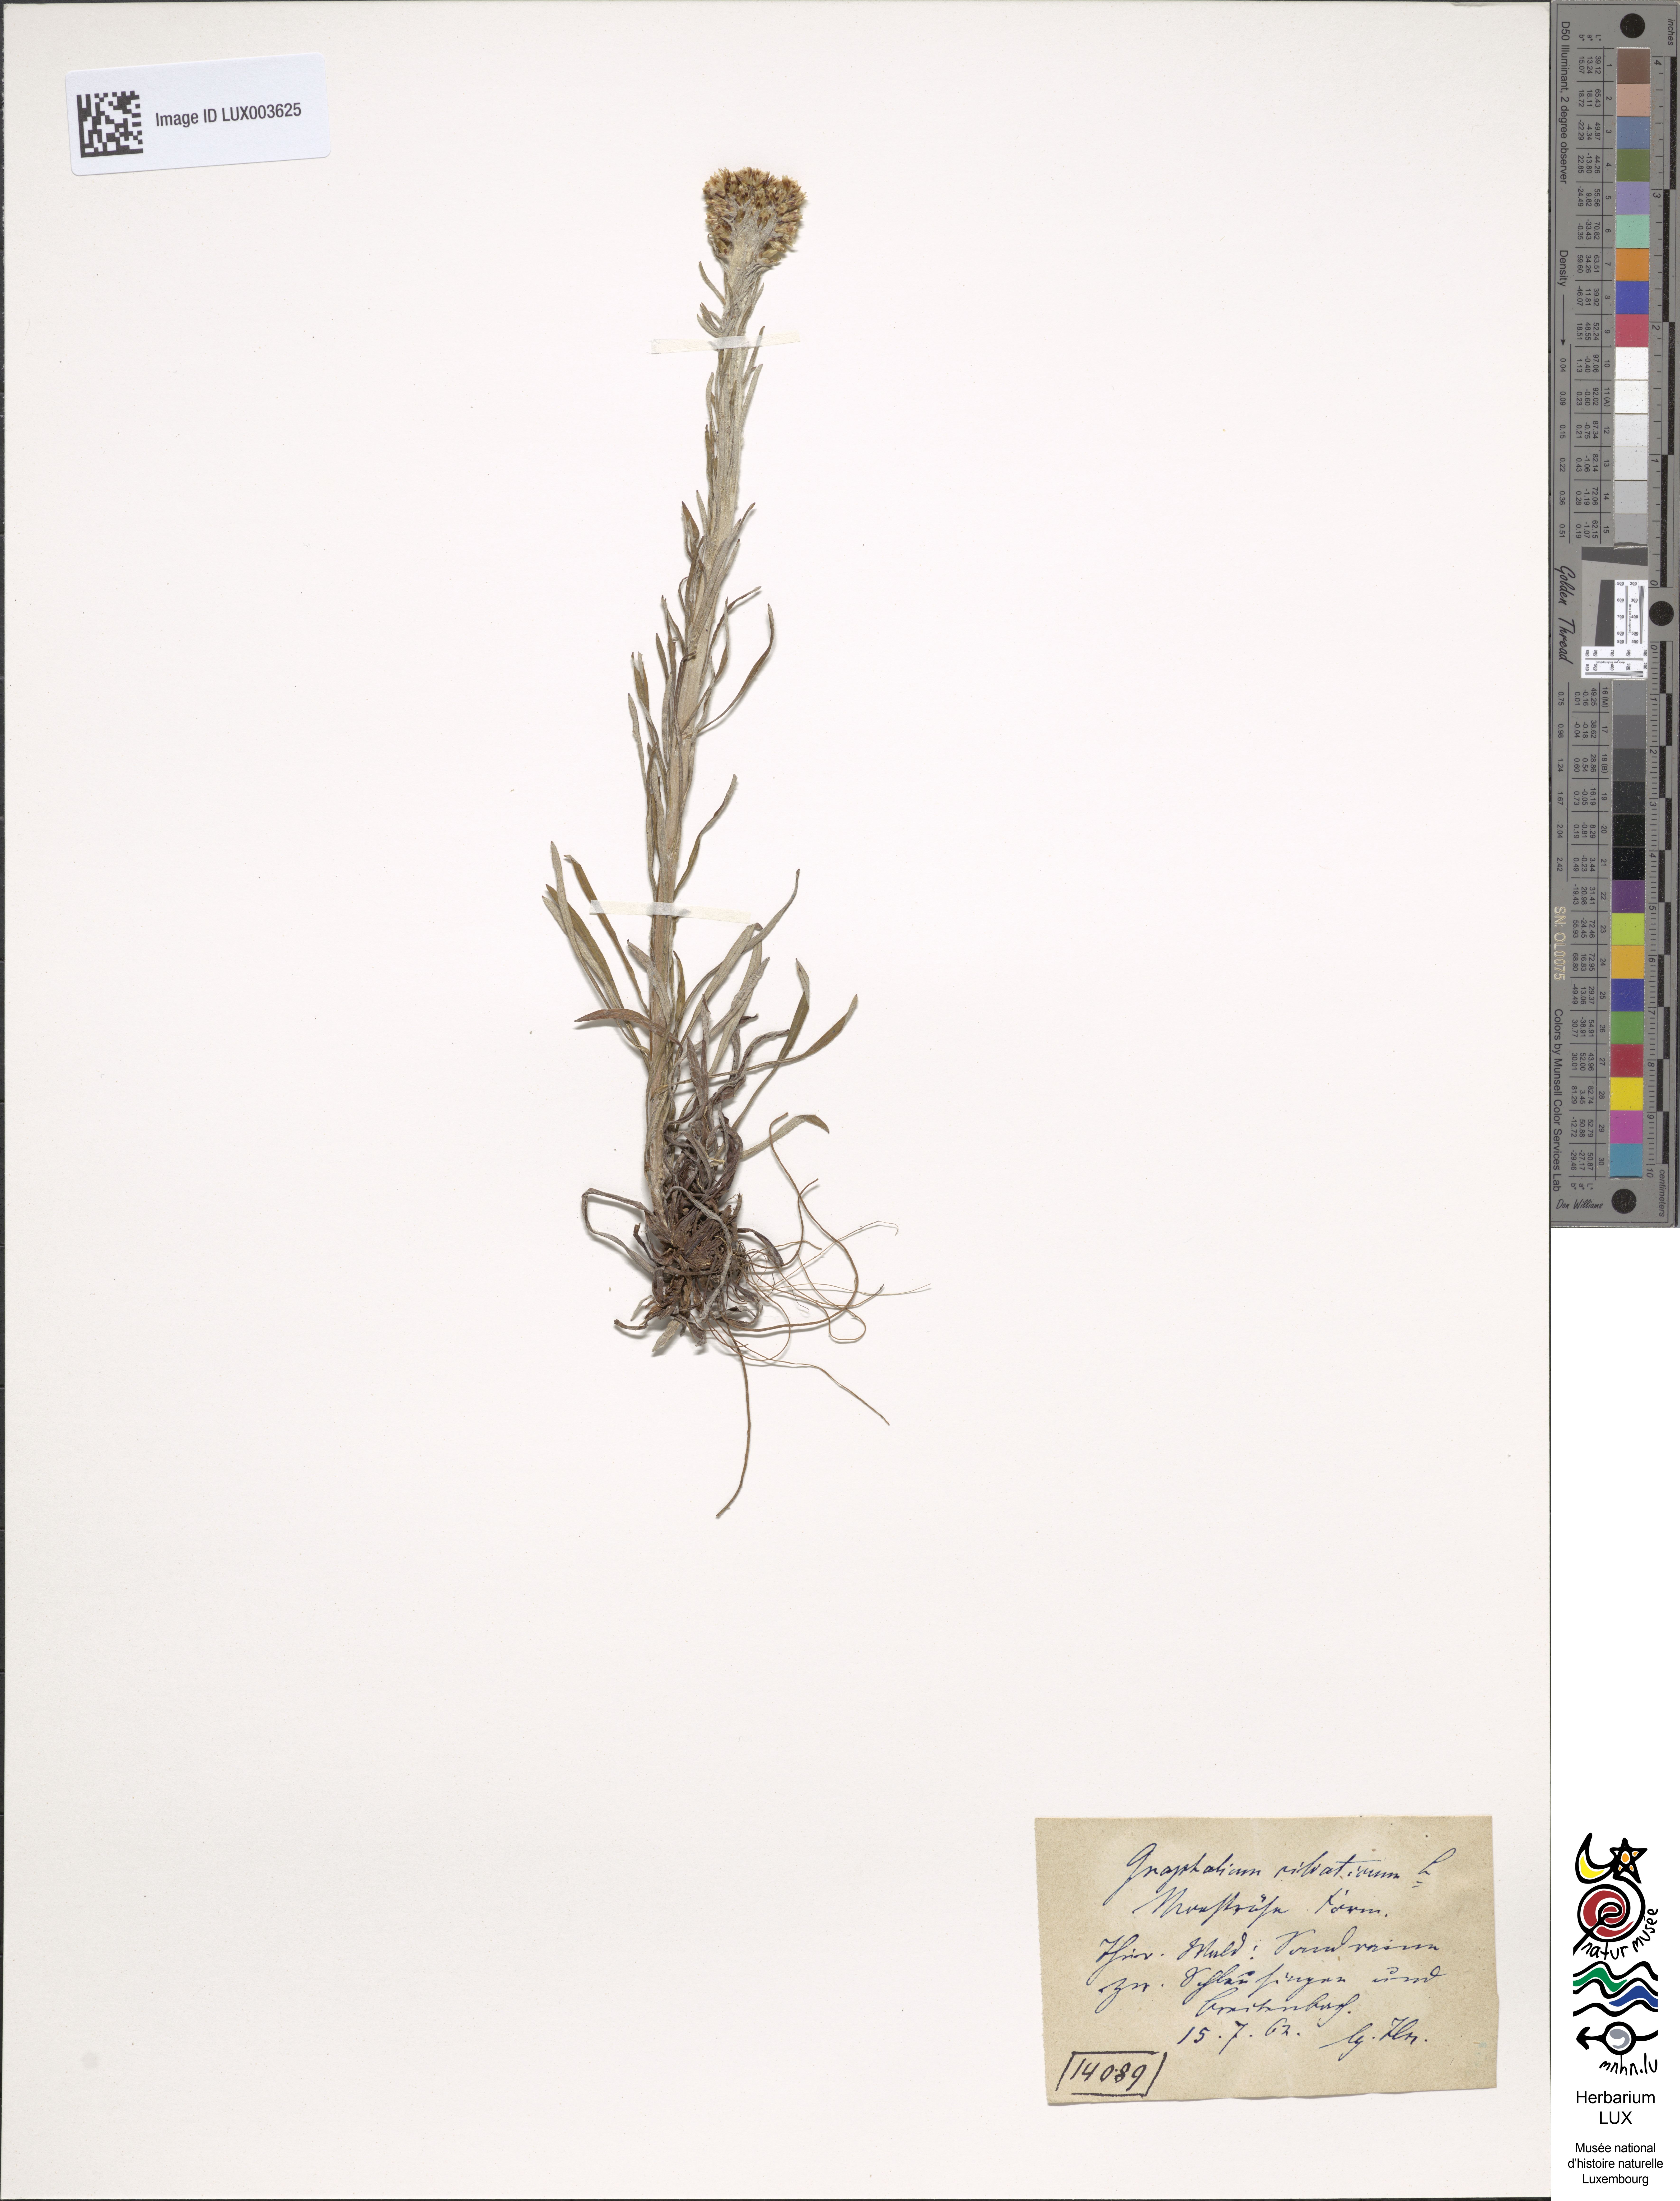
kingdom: Plantae
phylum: Tracheophyta
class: Magnoliopsida
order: Asterales
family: Asteraceae
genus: Omalotheca
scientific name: Omalotheca sylvatica
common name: Heath cudweed
